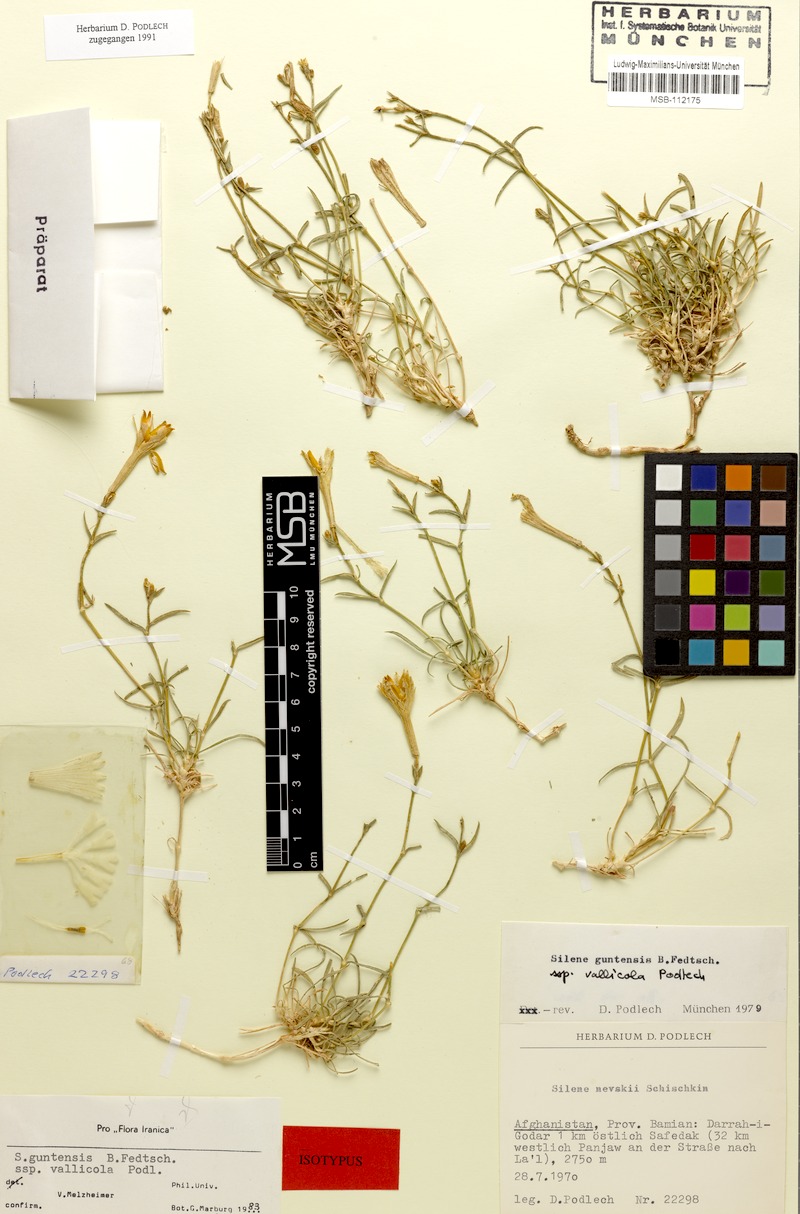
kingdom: Plantae
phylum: Tracheophyta
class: Magnoliopsida
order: Caryophyllales
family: Caryophyllaceae
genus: Silene
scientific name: Silene guntensis
